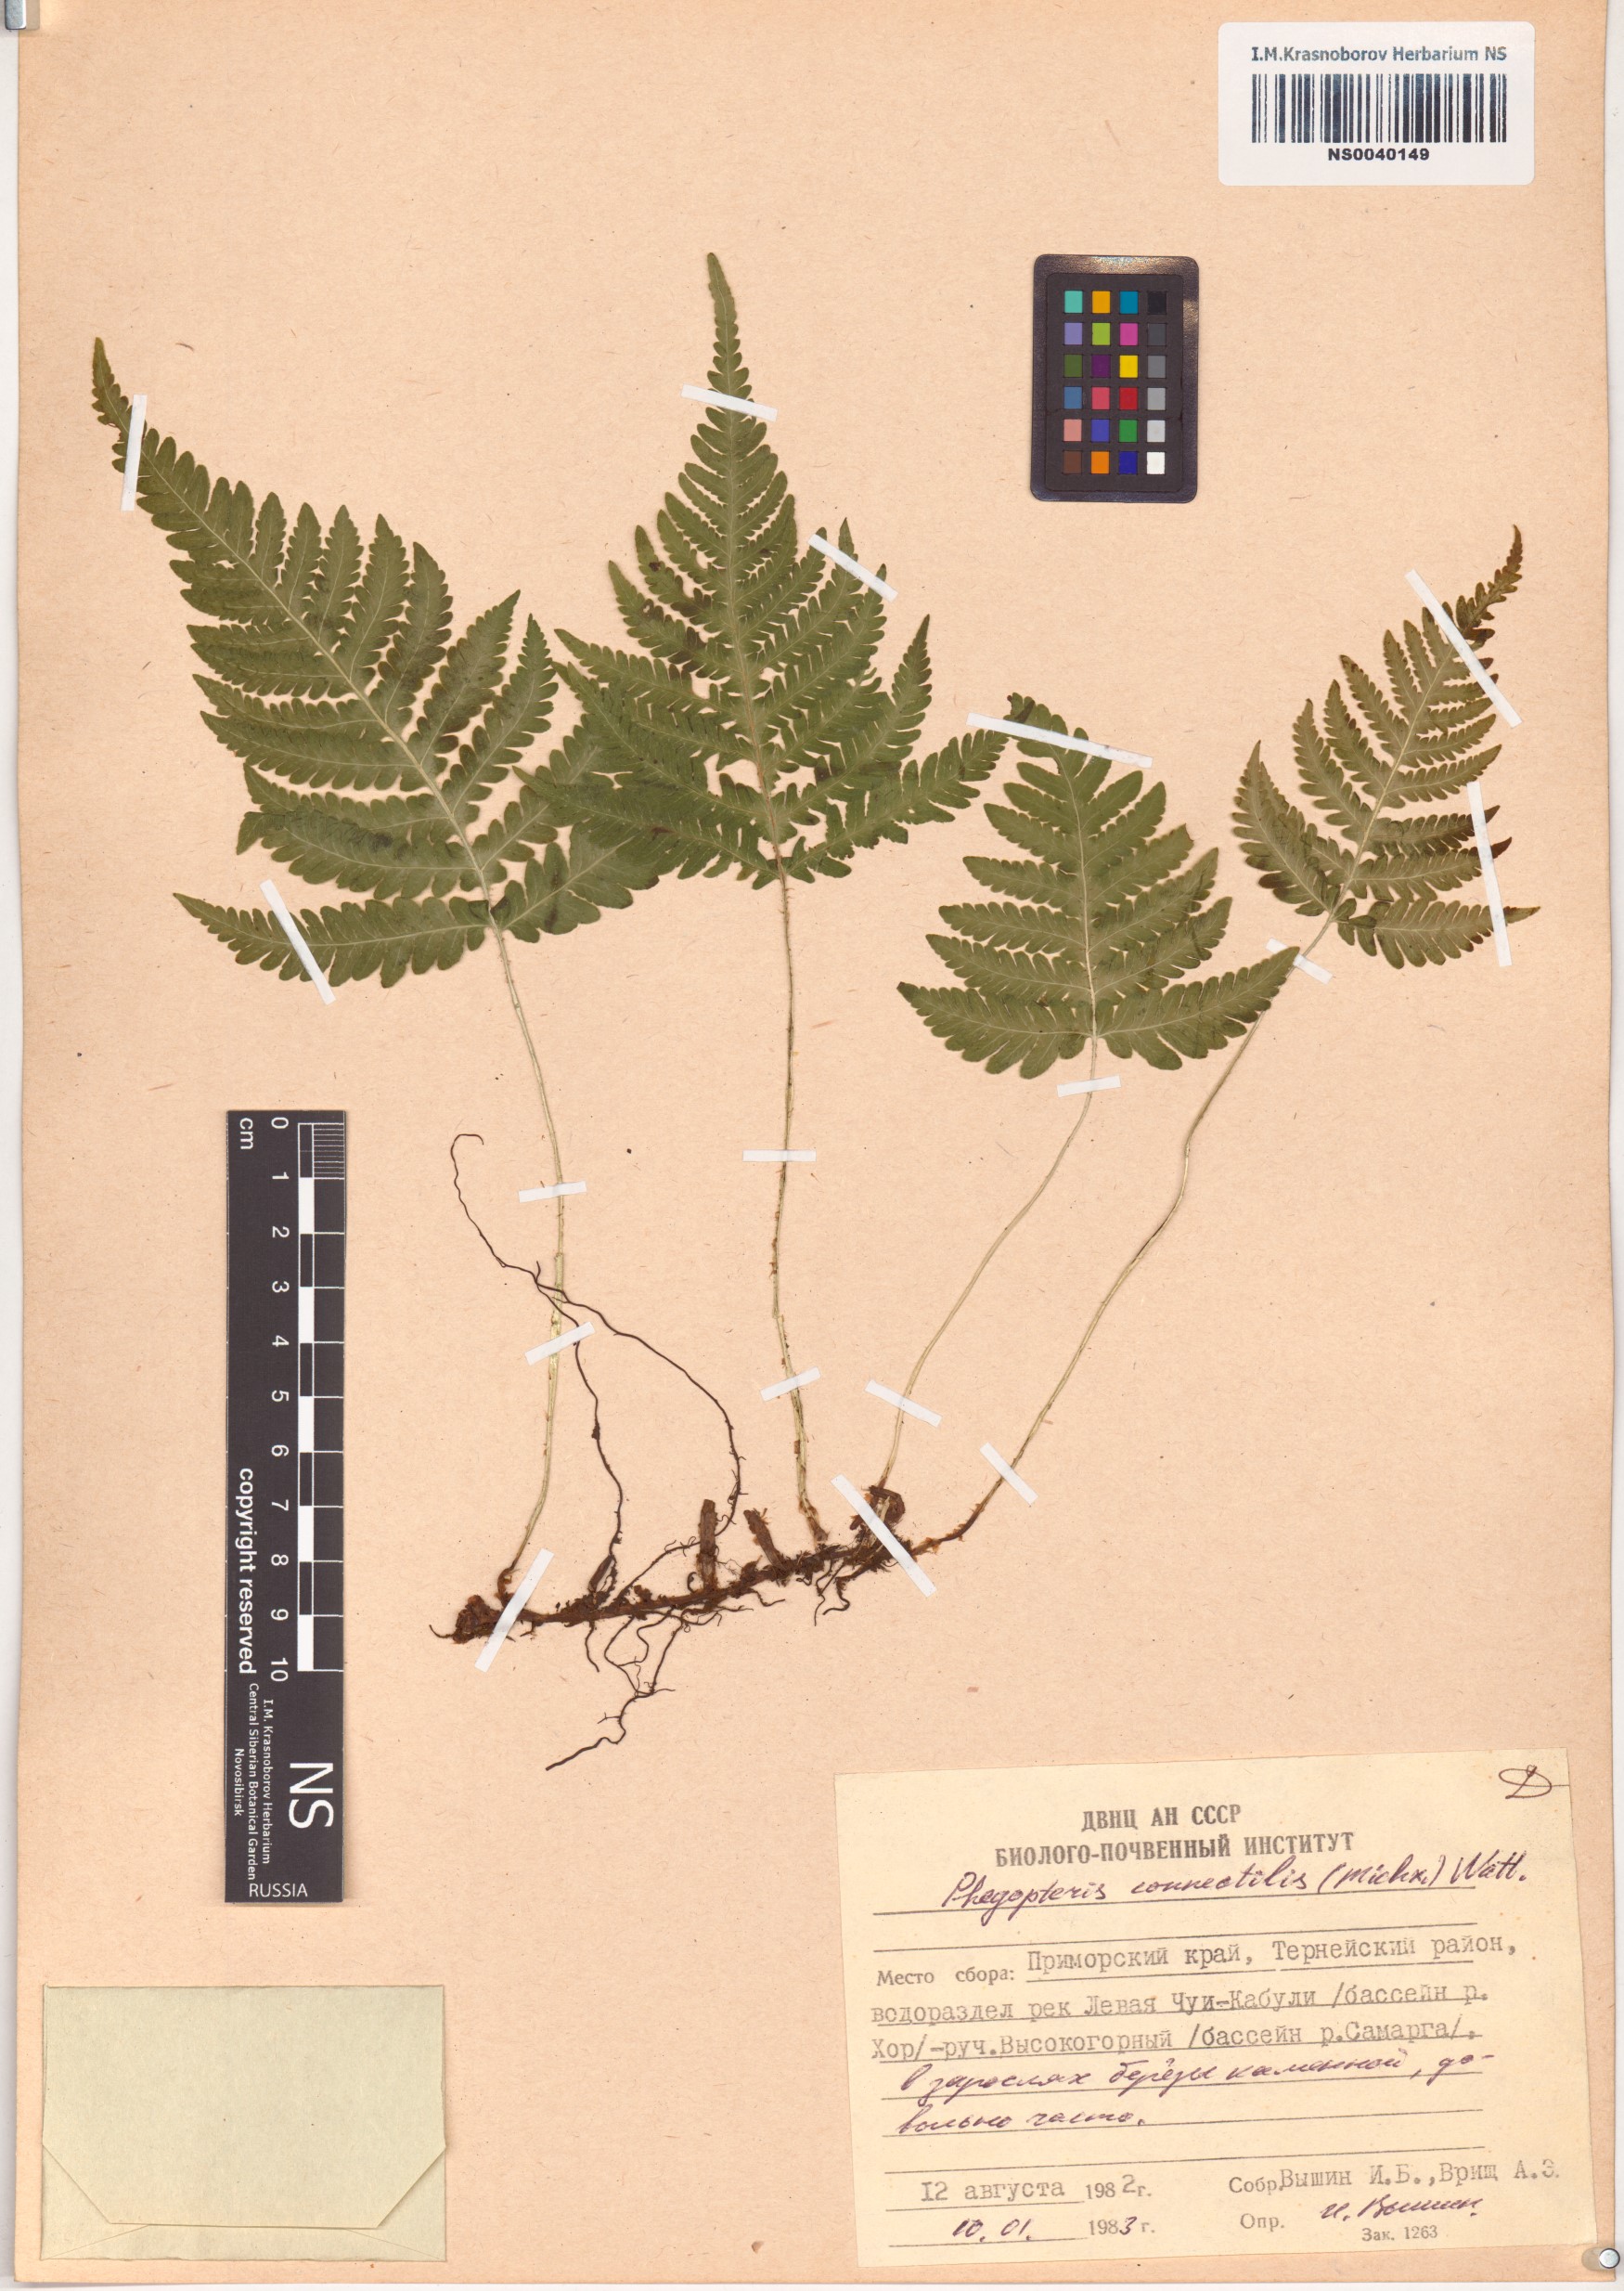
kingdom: Plantae
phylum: Tracheophyta
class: Polypodiopsida
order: Polypodiales
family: Thelypteridaceae
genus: Phegopteris
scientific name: Phegopteris connectilis
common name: Beech fern
